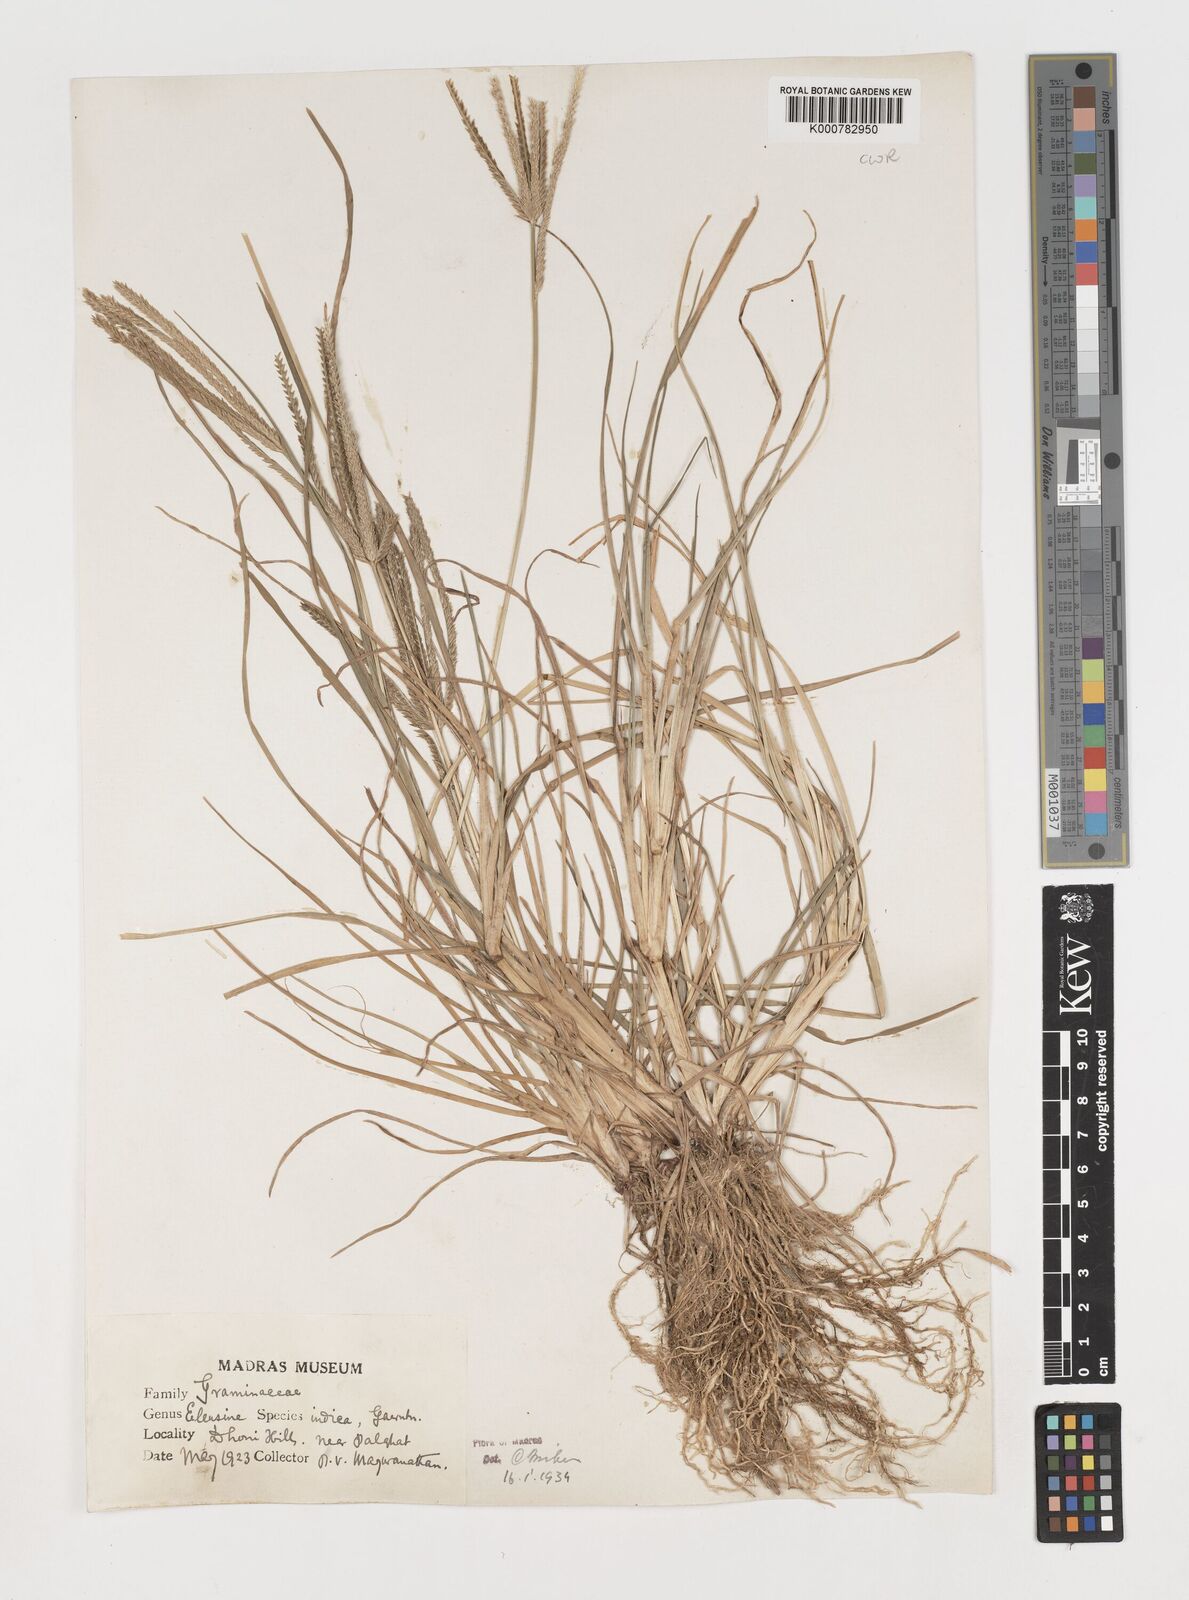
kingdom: Plantae
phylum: Tracheophyta
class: Liliopsida
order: Poales
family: Poaceae
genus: Eleusine
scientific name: Eleusine indica
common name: Yard-grass
